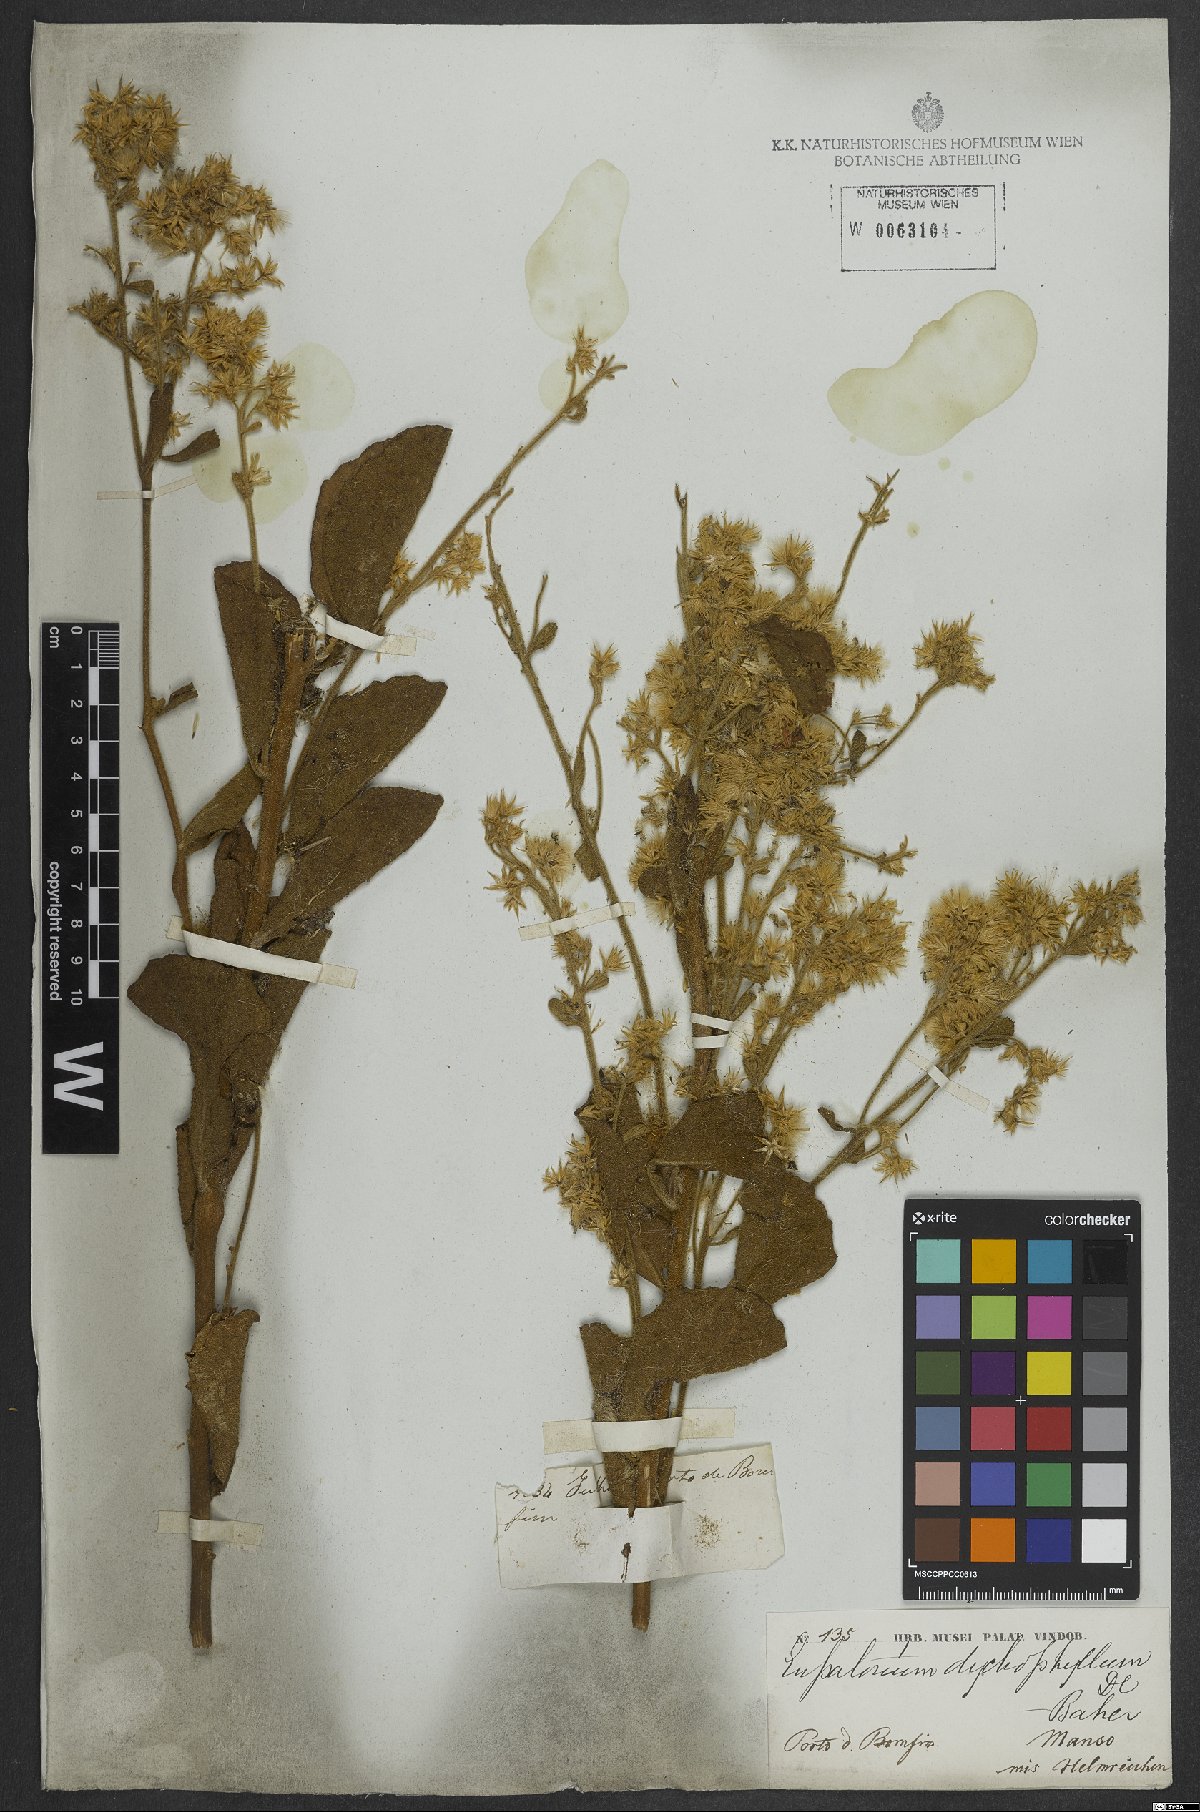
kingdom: Plantae
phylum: Tracheophyta
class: Magnoliopsida
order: Asterales
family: Asteraceae
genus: Stomatanthes
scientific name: Stomatanthes dictyophyllus
